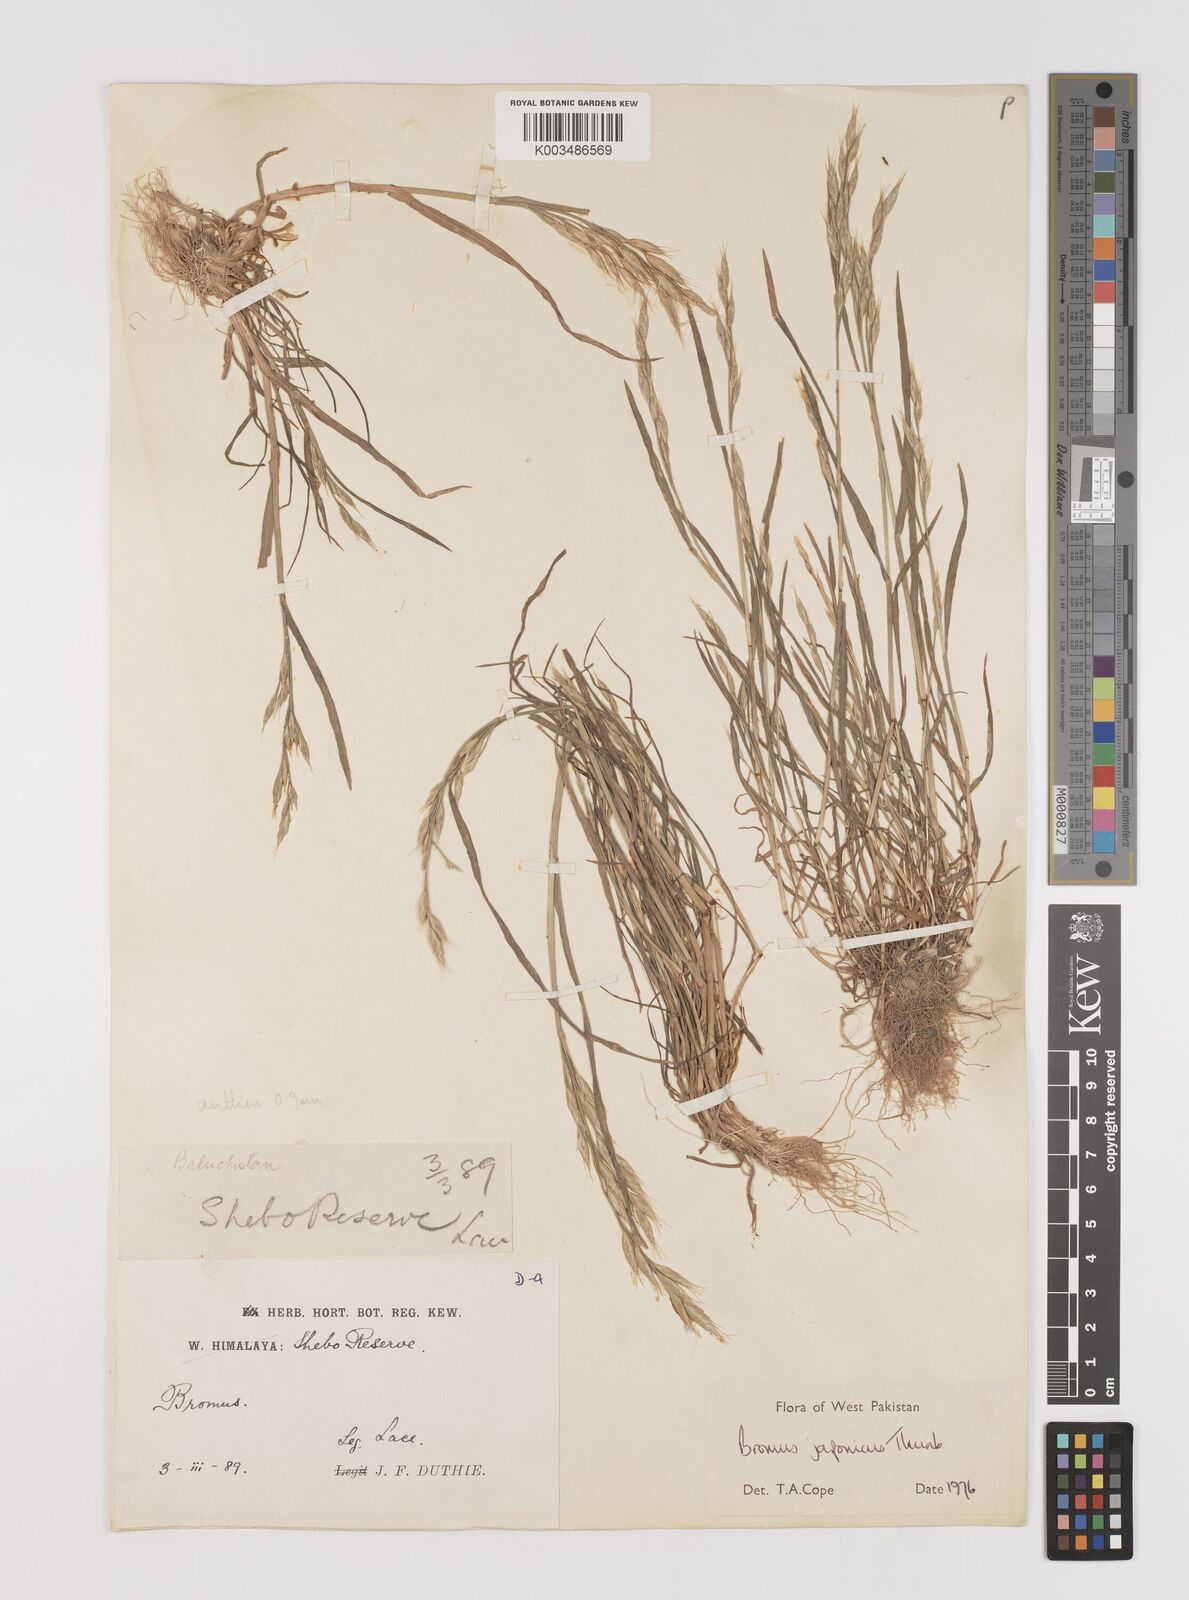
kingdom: Plantae
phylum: Tracheophyta
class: Liliopsida
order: Poales
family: Poaceae
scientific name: Poaceae
